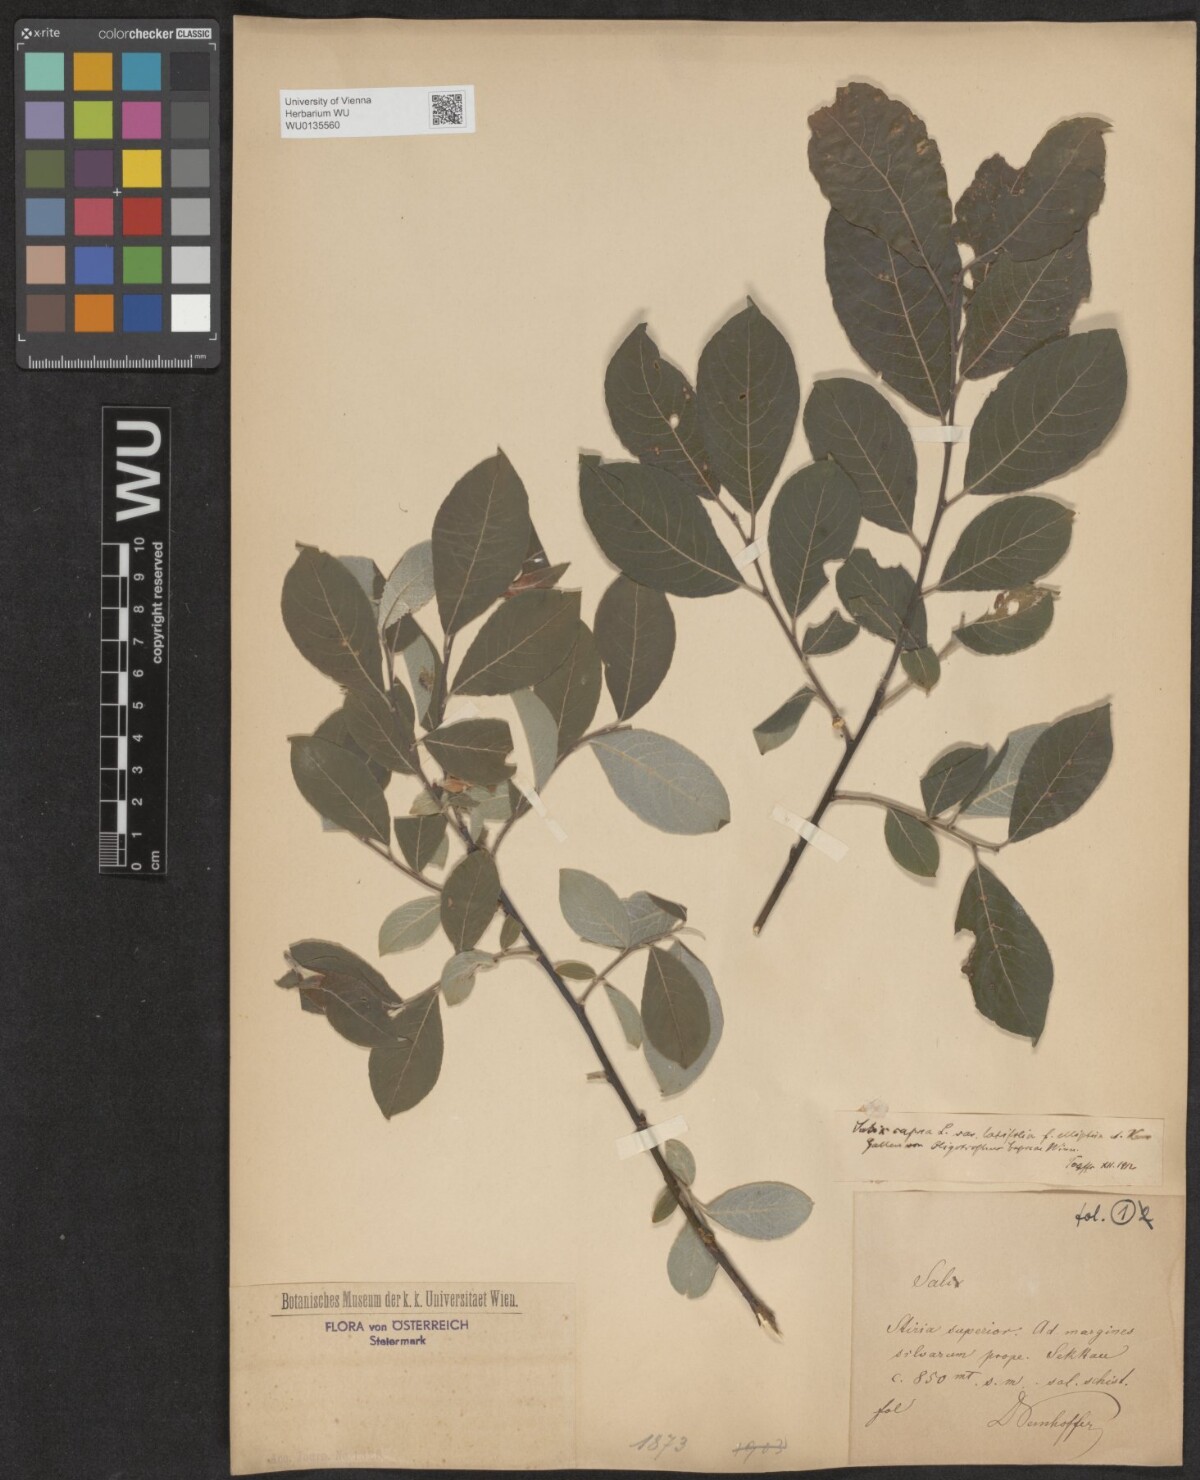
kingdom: Plantae
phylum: Tracheophyta
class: Magnoliopsida
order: Malpighiales
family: Salicaceae
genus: Salix
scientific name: Salix caprea
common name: Goat willow
